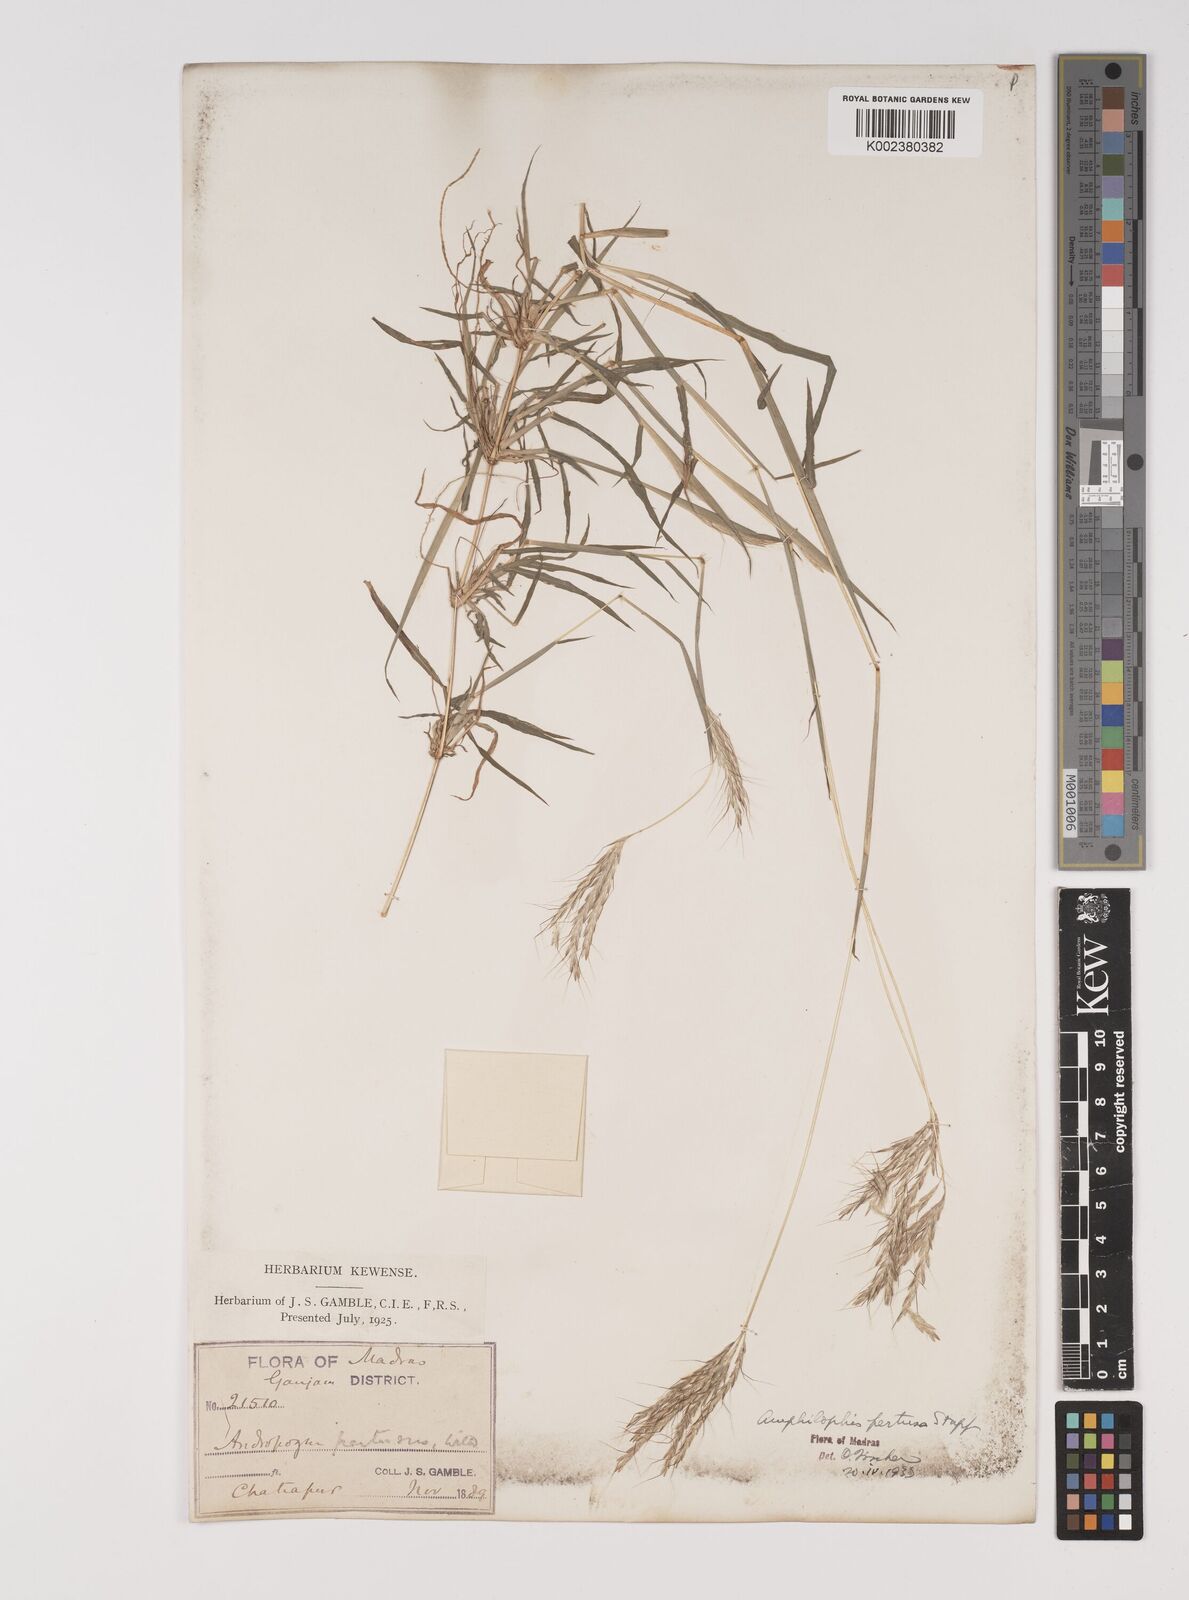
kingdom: Plantae
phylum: Tracheophyta
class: Liliopsida
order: Poales
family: Poaceae
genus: Bothriochloa
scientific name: Bothriochloa pertusa
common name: Pitted beardgrass
